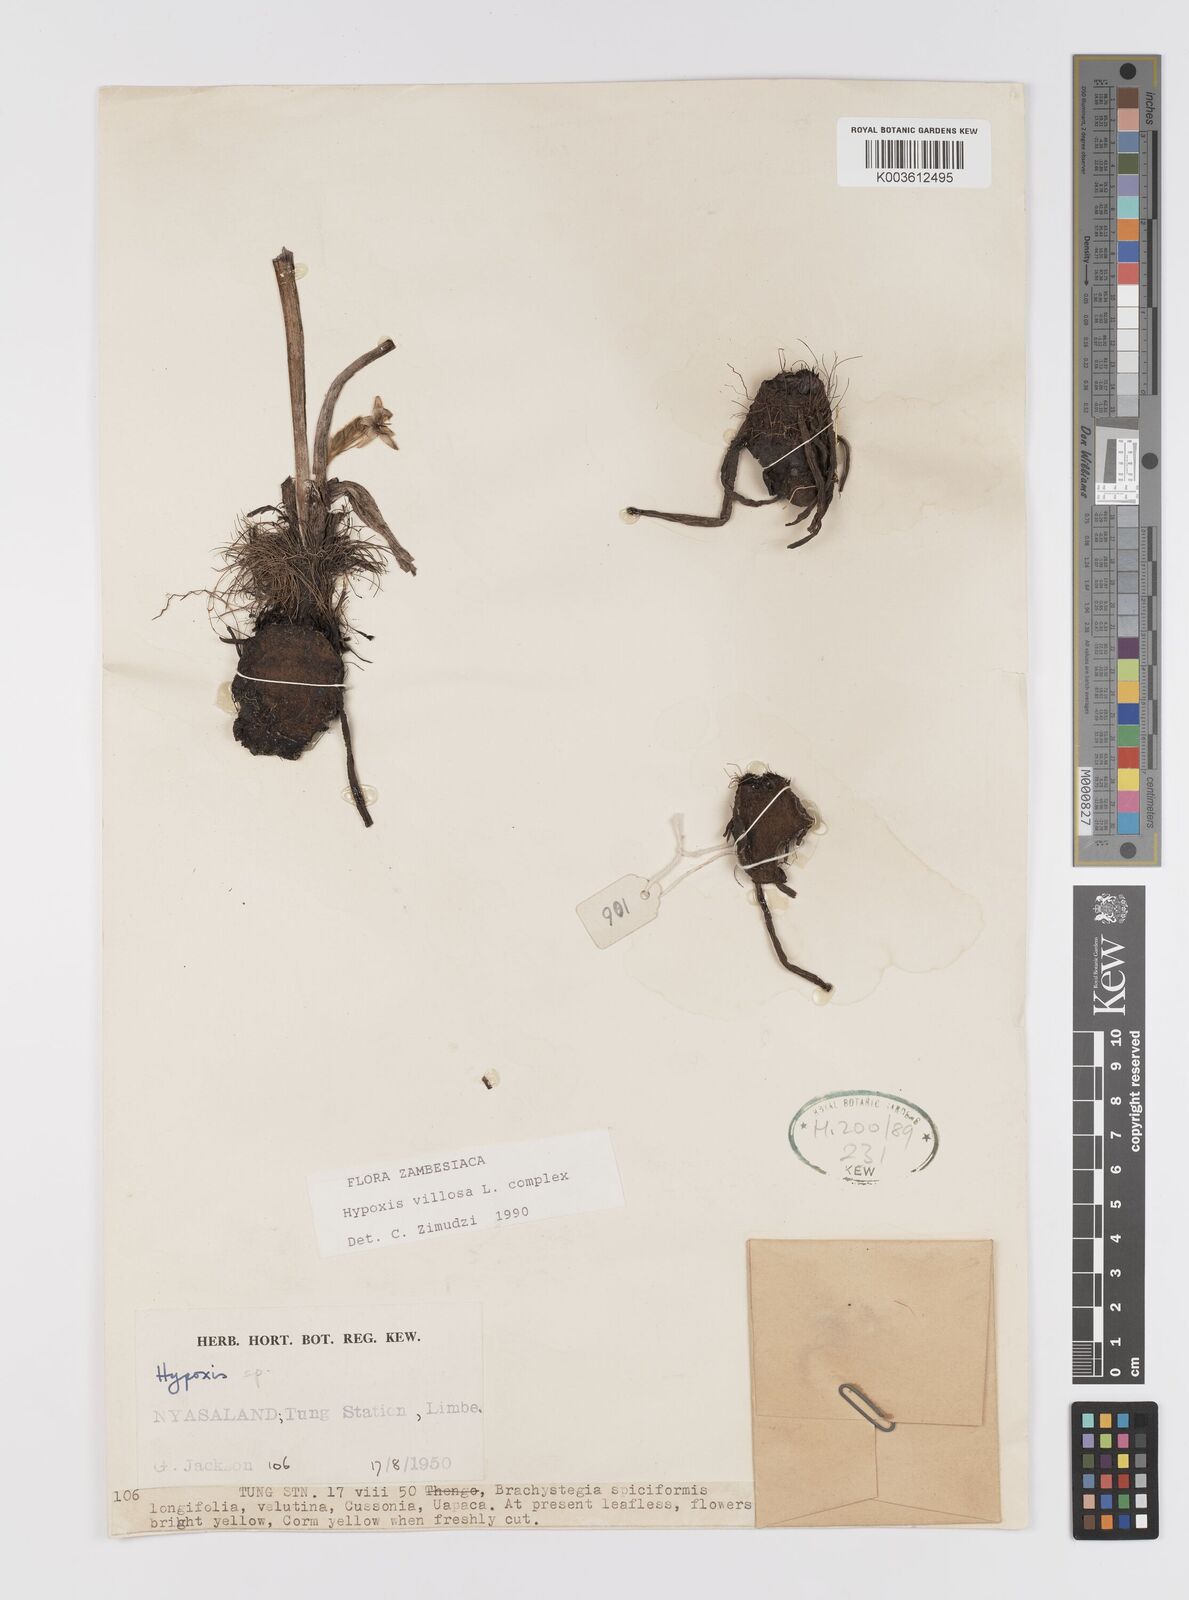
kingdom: Plantae
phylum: Tracheophyta
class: Liliopsida
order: Asparagales
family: Hypoxidaceae
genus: Hypoxis
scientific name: Hypoxis nyasica
